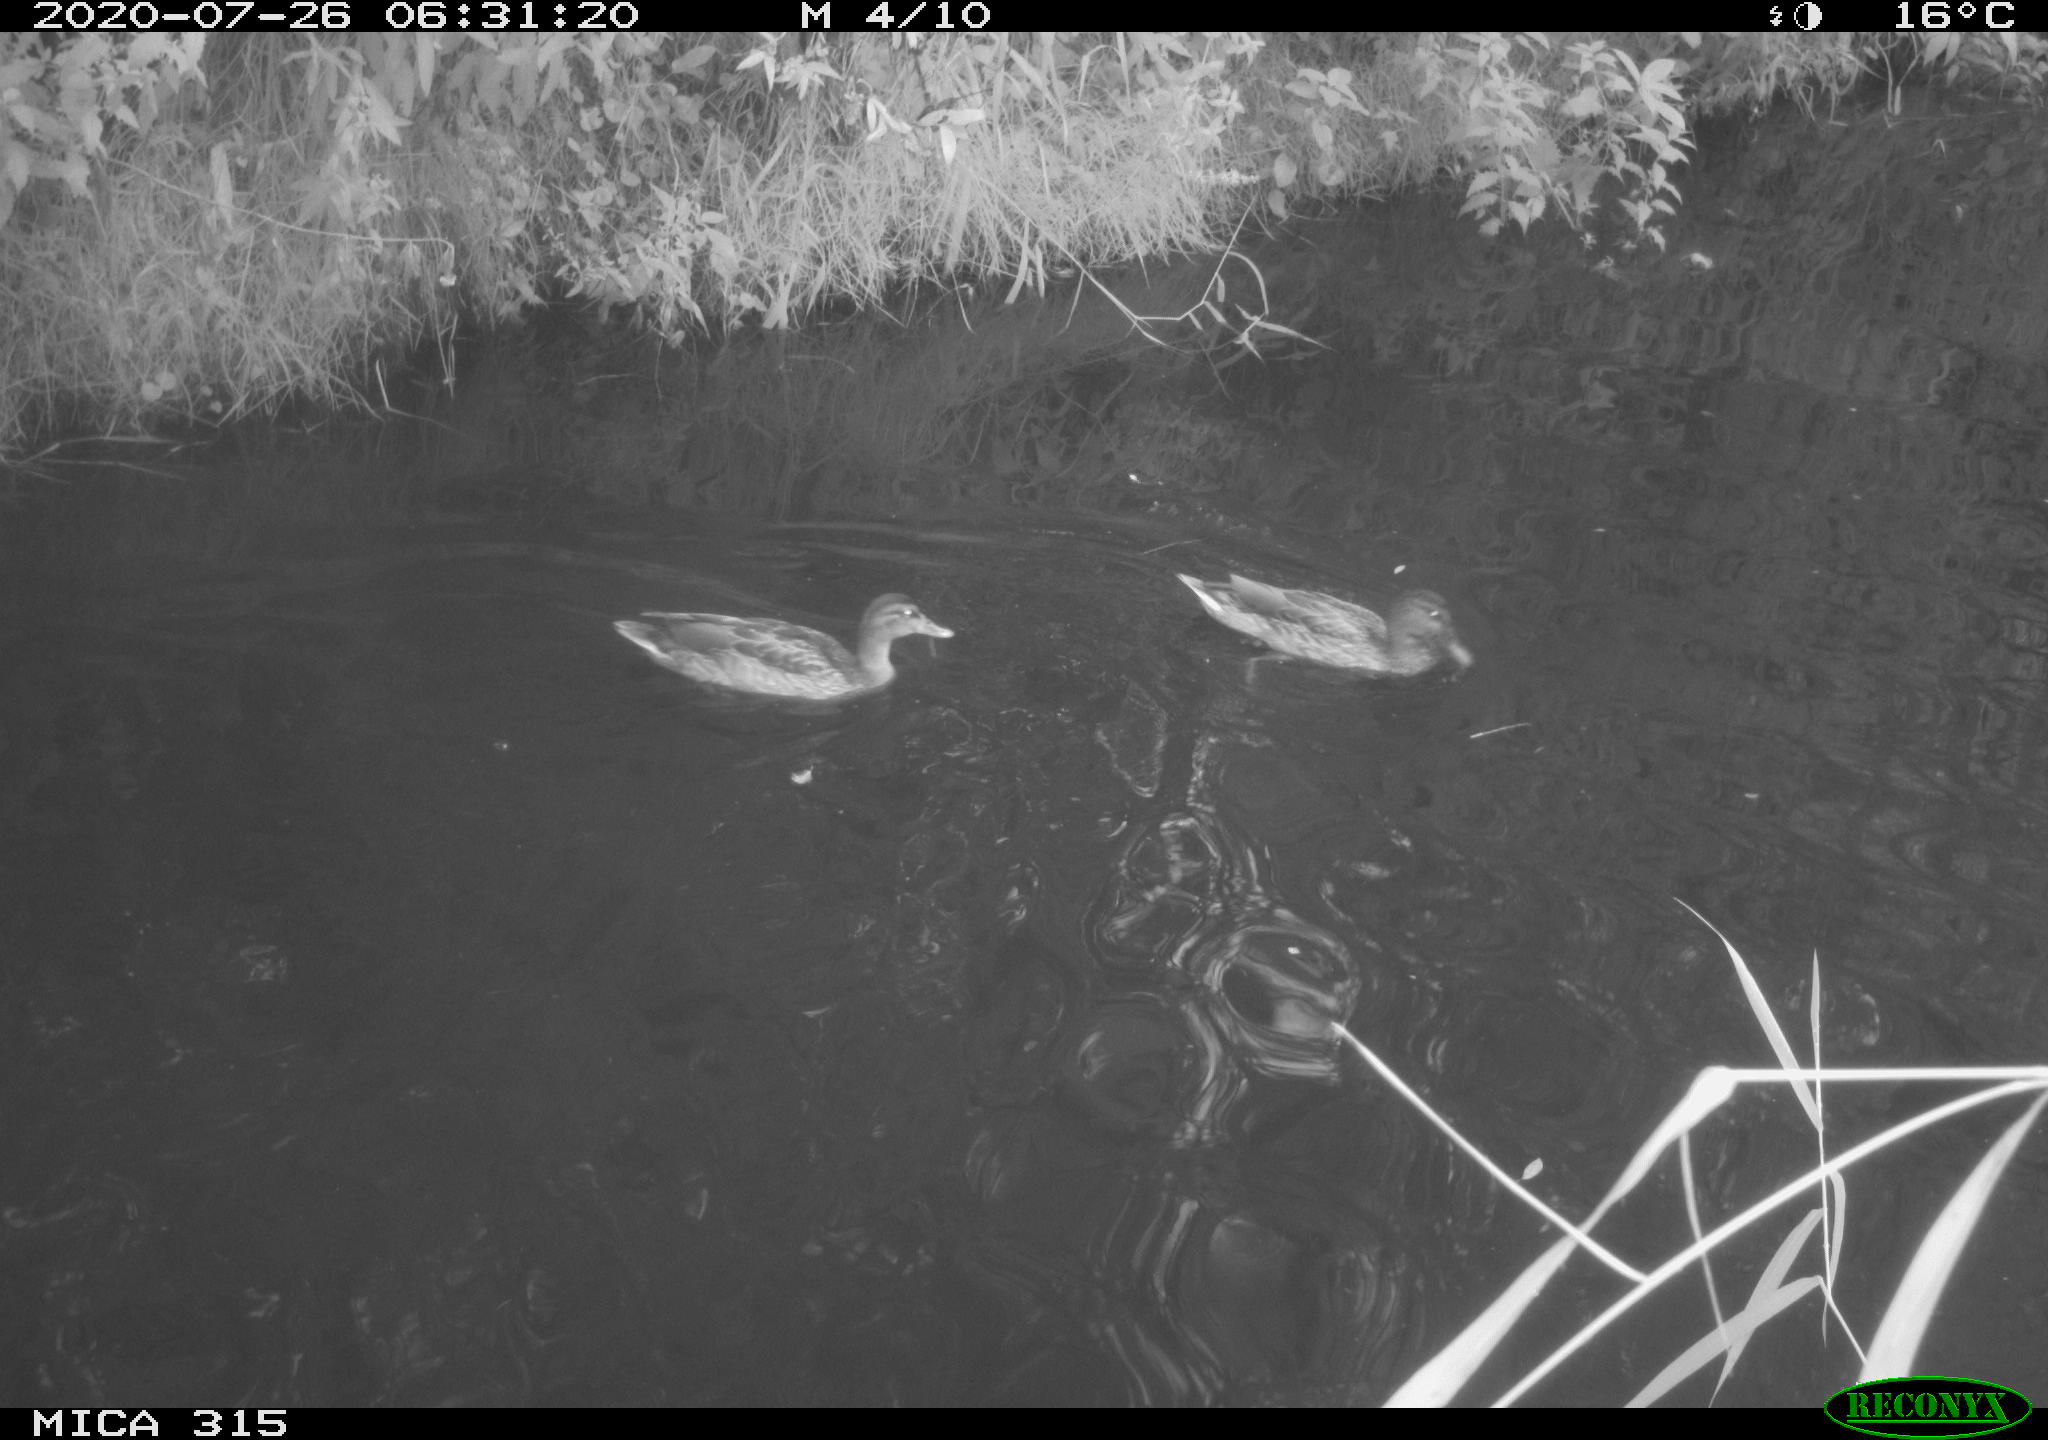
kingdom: Animalia
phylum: Chordata
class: Aves
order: Anseriformes
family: Anatidae
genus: Anas
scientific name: Anas platyrhynchos
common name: Mallard
